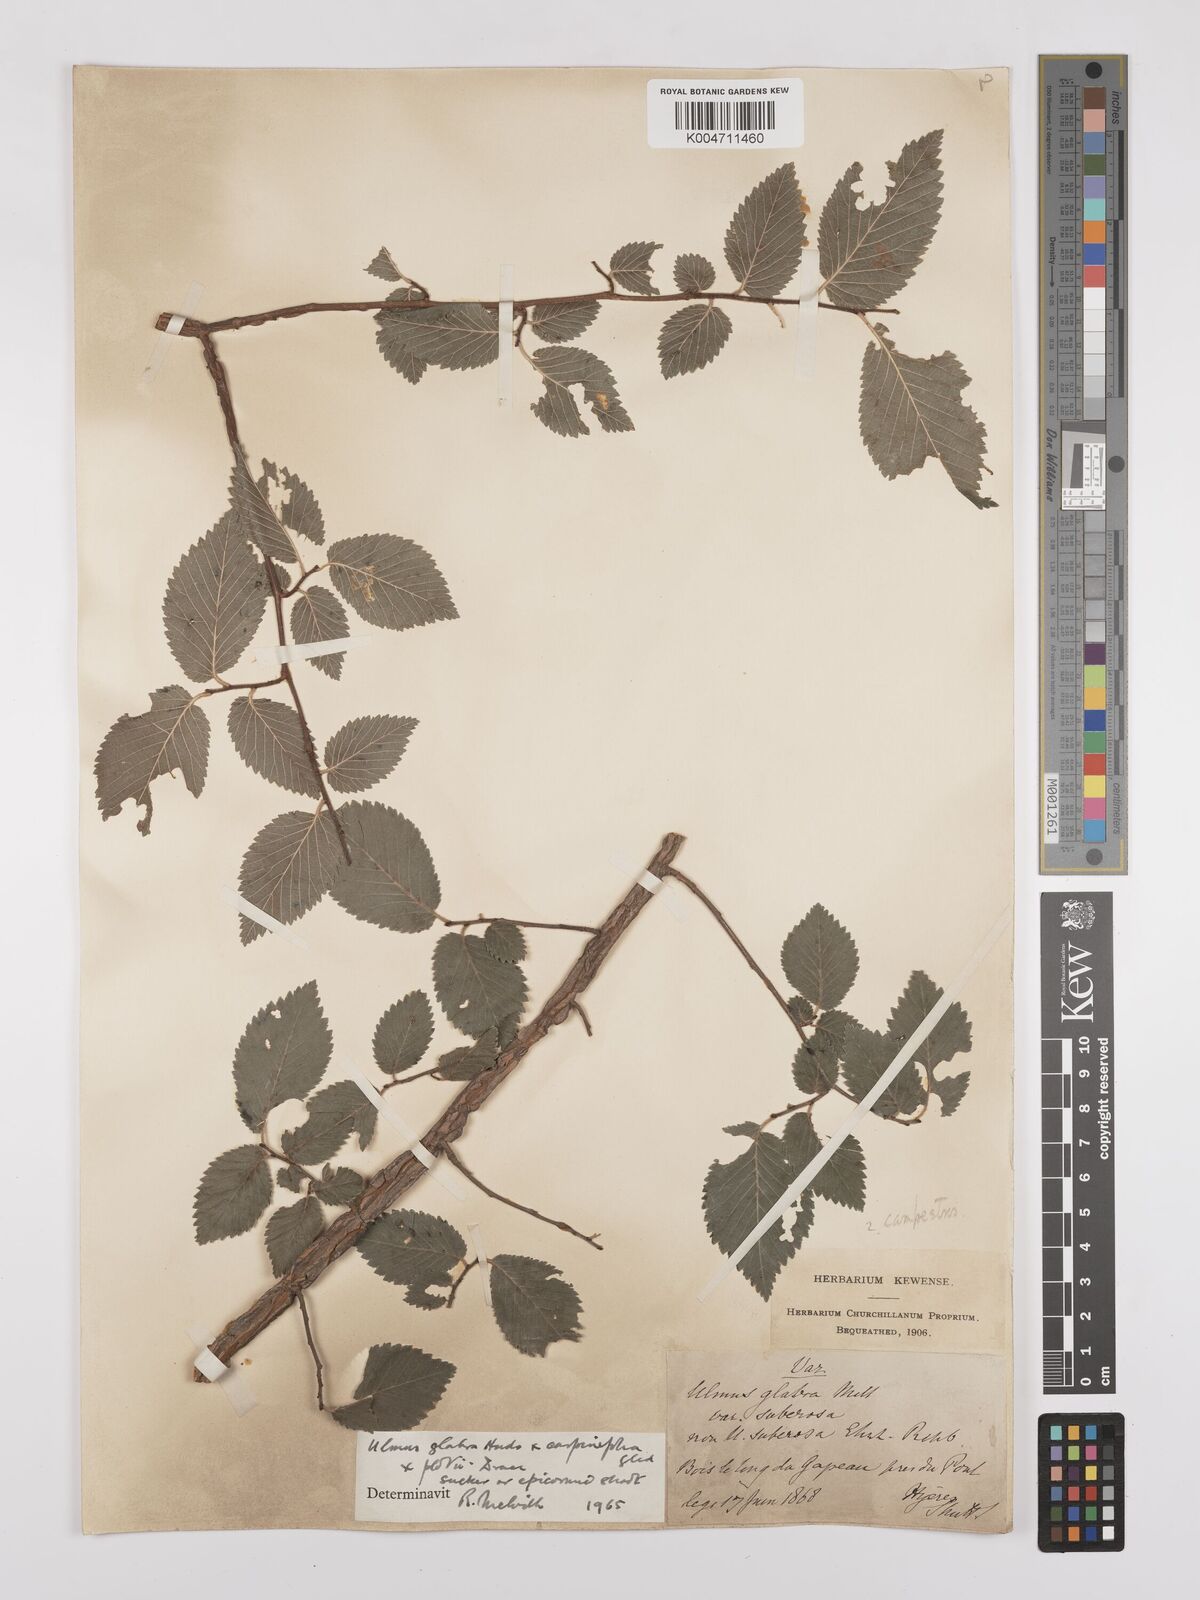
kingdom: Plantae
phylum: Tracheophyta
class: Magnoliopsida
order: Rosales
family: Ulmaceae
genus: Ulmus
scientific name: Ulmus minor
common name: Small-leaved elm
